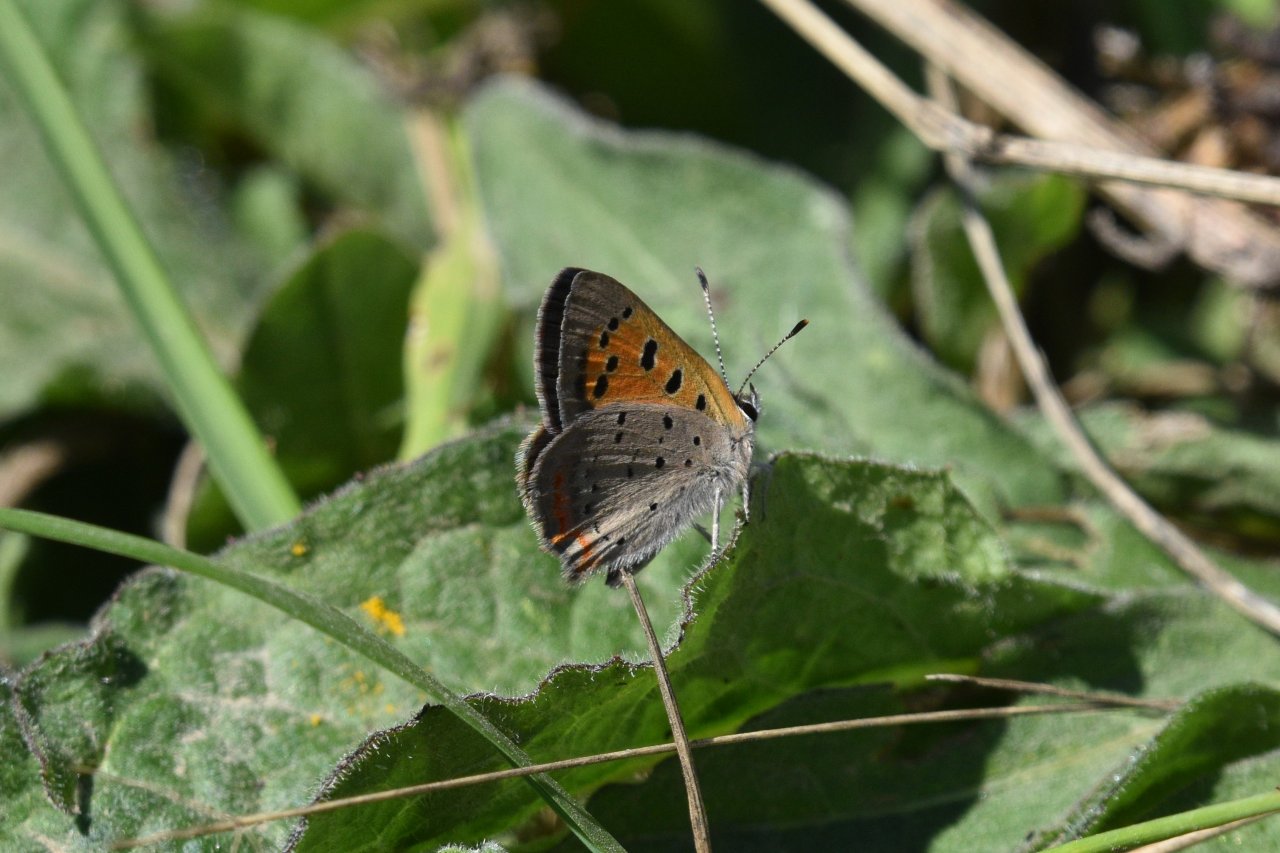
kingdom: Animalia
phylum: Arthropoda
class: Insecta
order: Lepidoptera
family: Lycaenidae
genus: Lycaena
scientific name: Lycaena phlaeas
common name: American Copper
